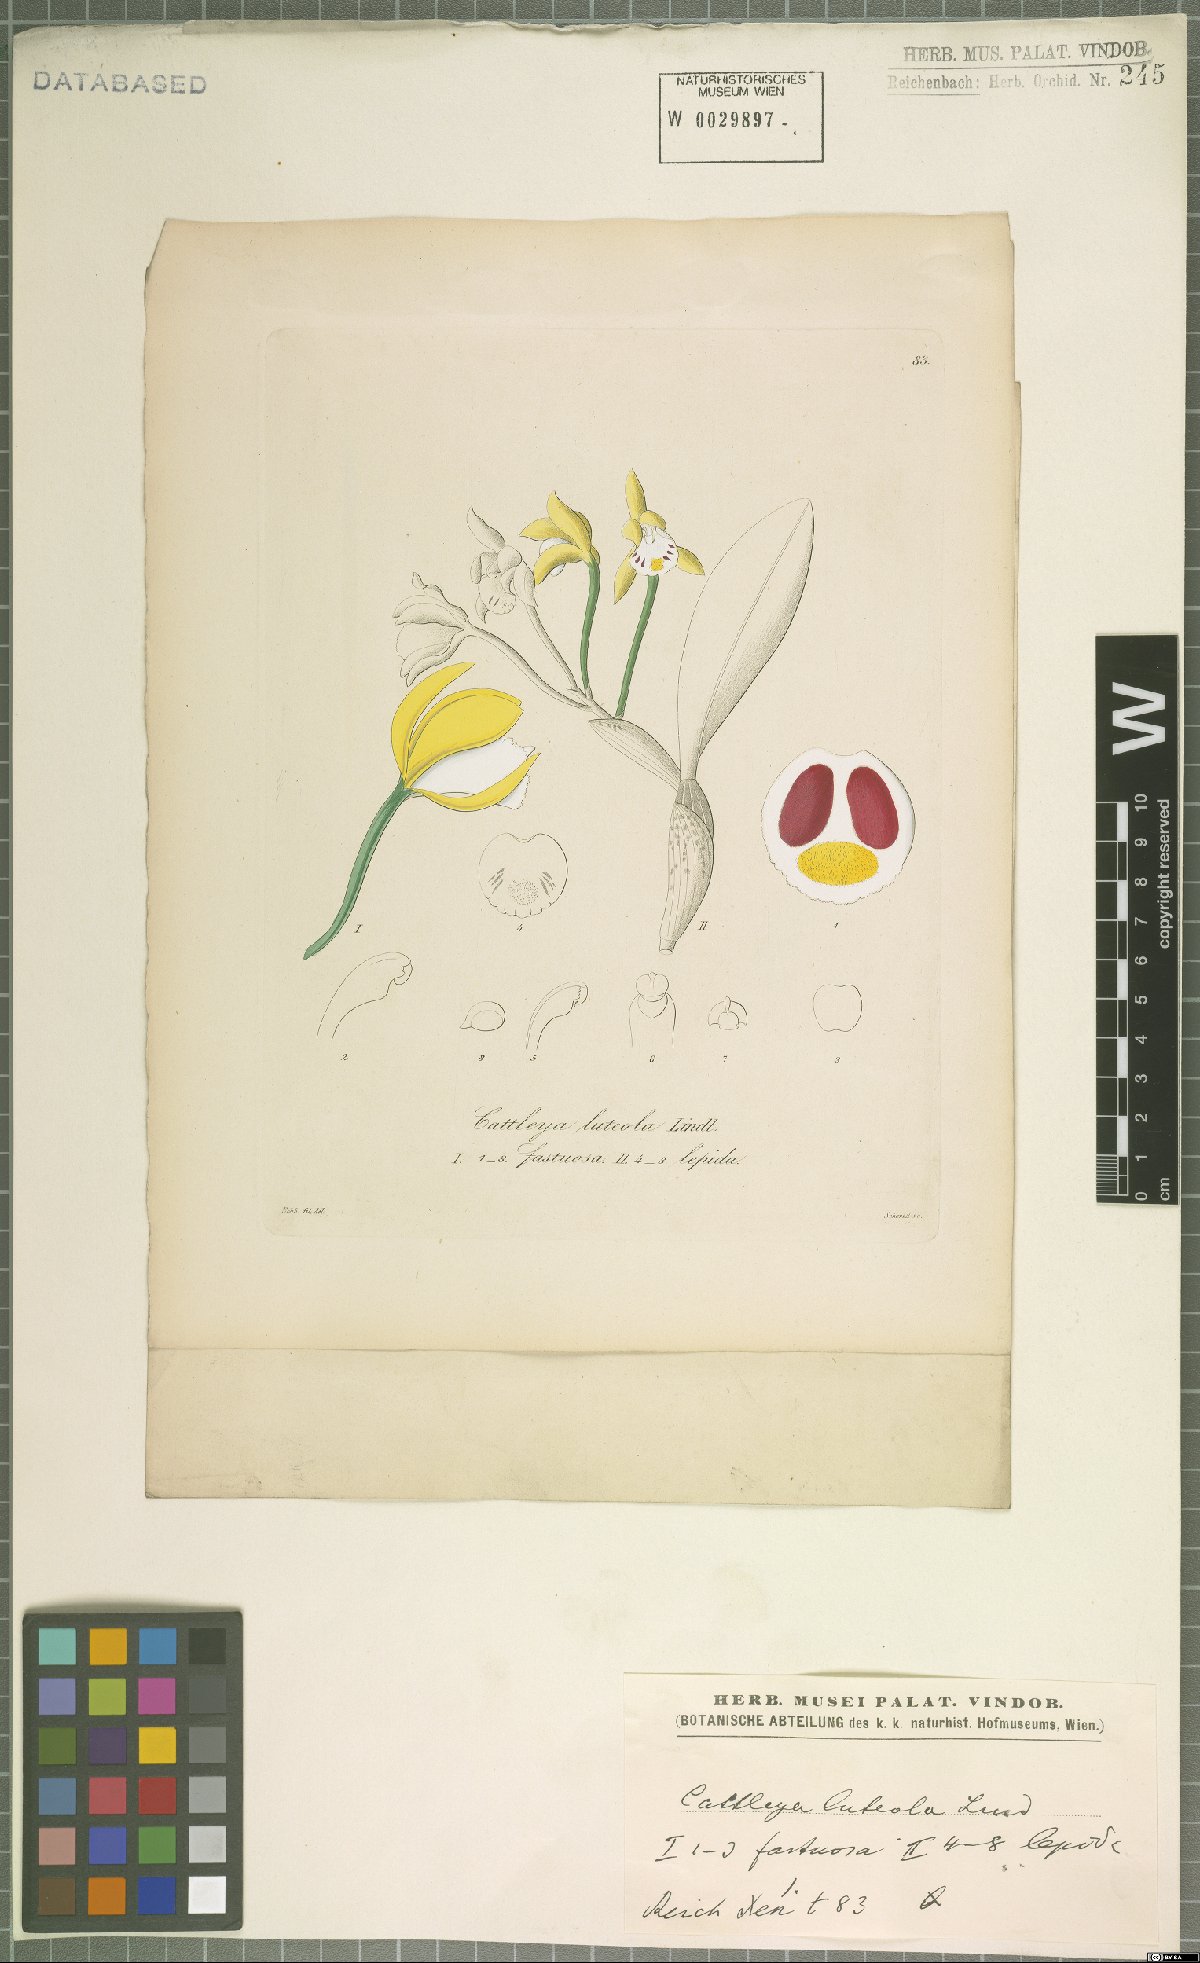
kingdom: Plantae
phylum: Tracheophyta
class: Liliopsida
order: Asparagales
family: Orchidaceae
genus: Cattleya
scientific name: Cattleya luteola
